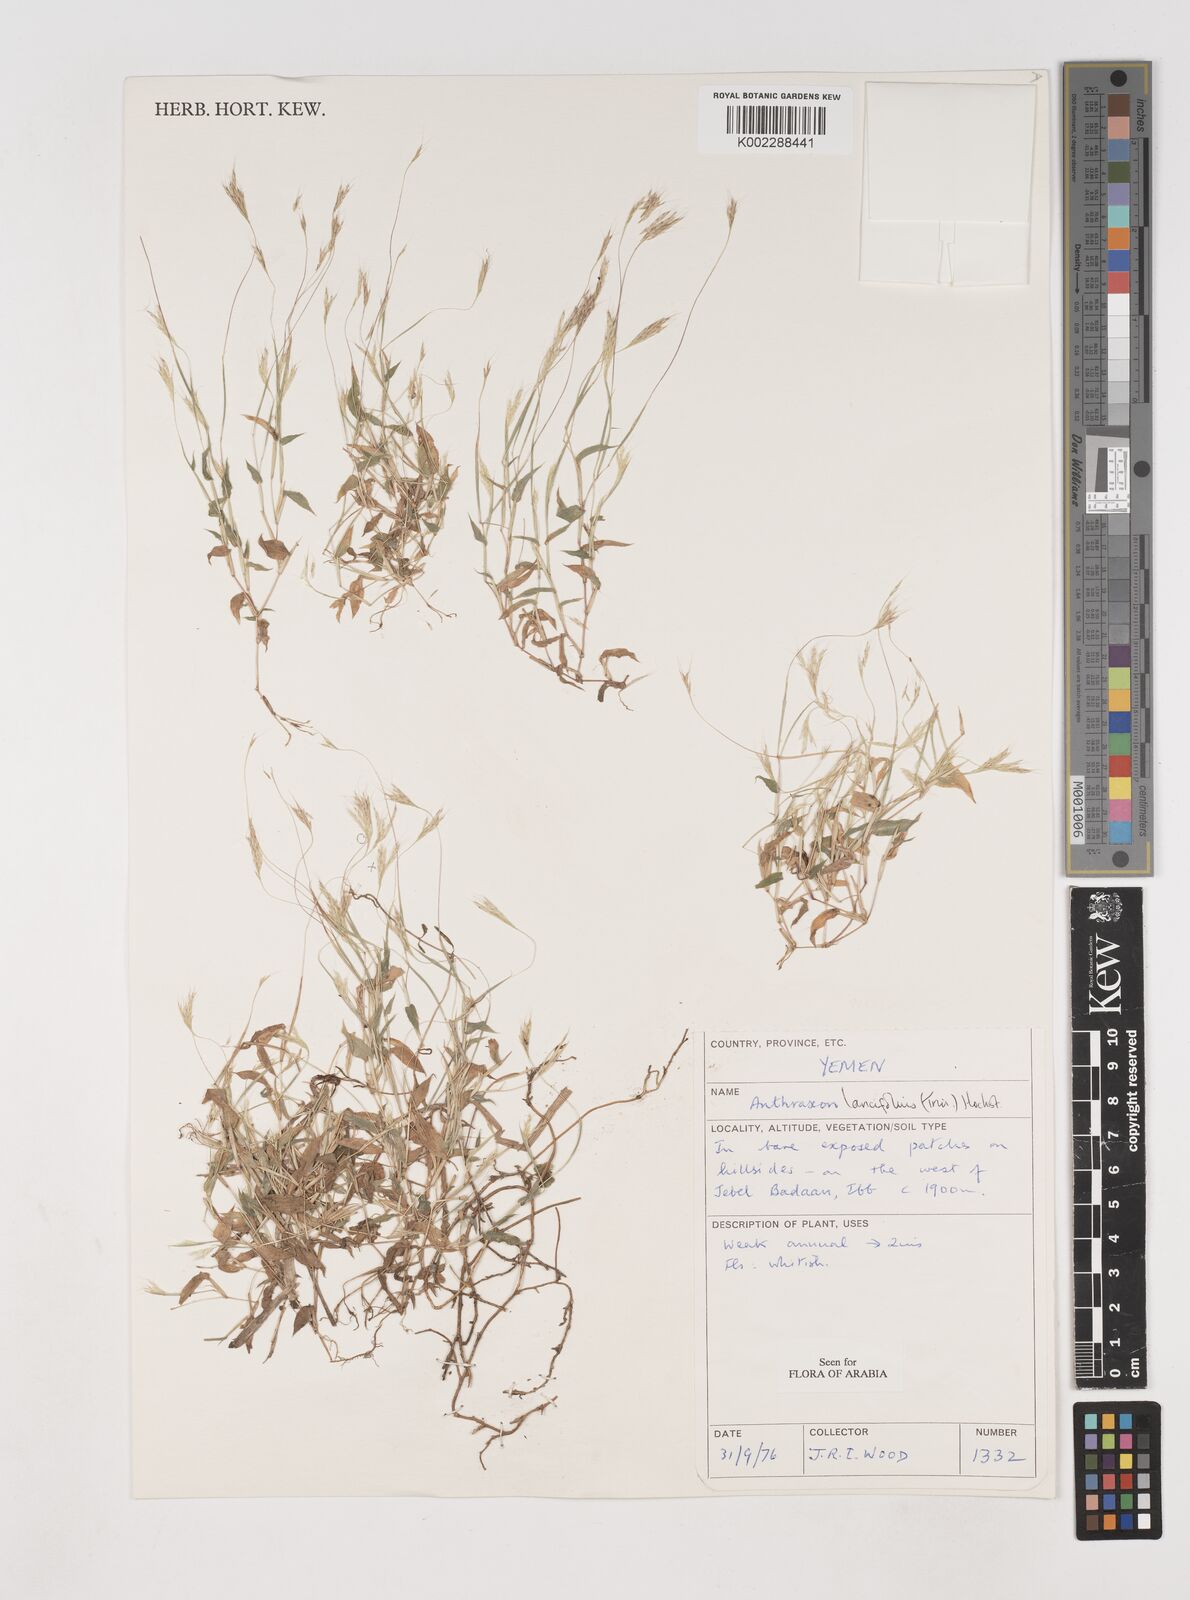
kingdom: Plantae
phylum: Tracheophyta
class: Liliopsida
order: Poales
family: Poaceae
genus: Arthraxon
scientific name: Arthraxon lancifolius
